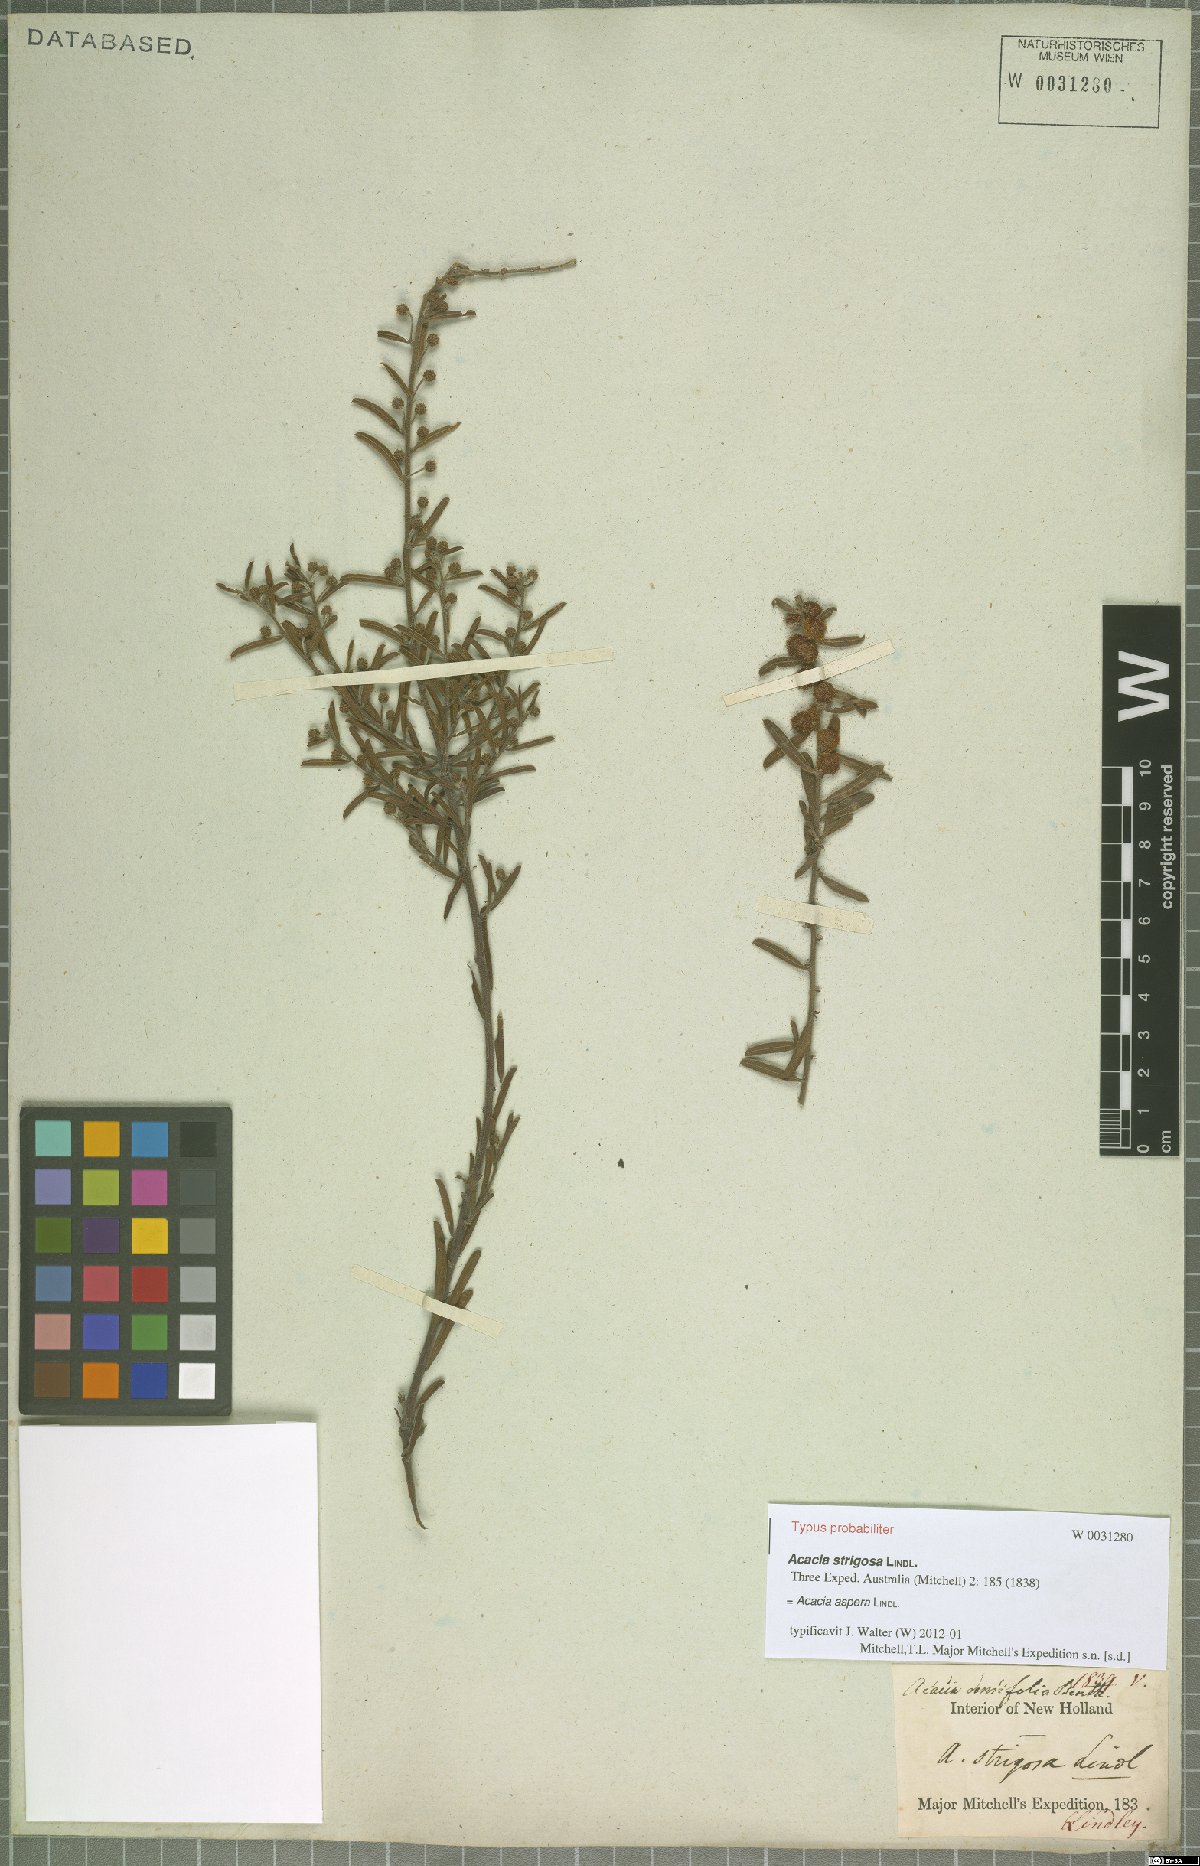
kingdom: Plantae
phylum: Tracheophyta
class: Magnoliopsida
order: Fabales
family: Fabaceae
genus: Acacia
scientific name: Acacia aspera
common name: Rough wattle
